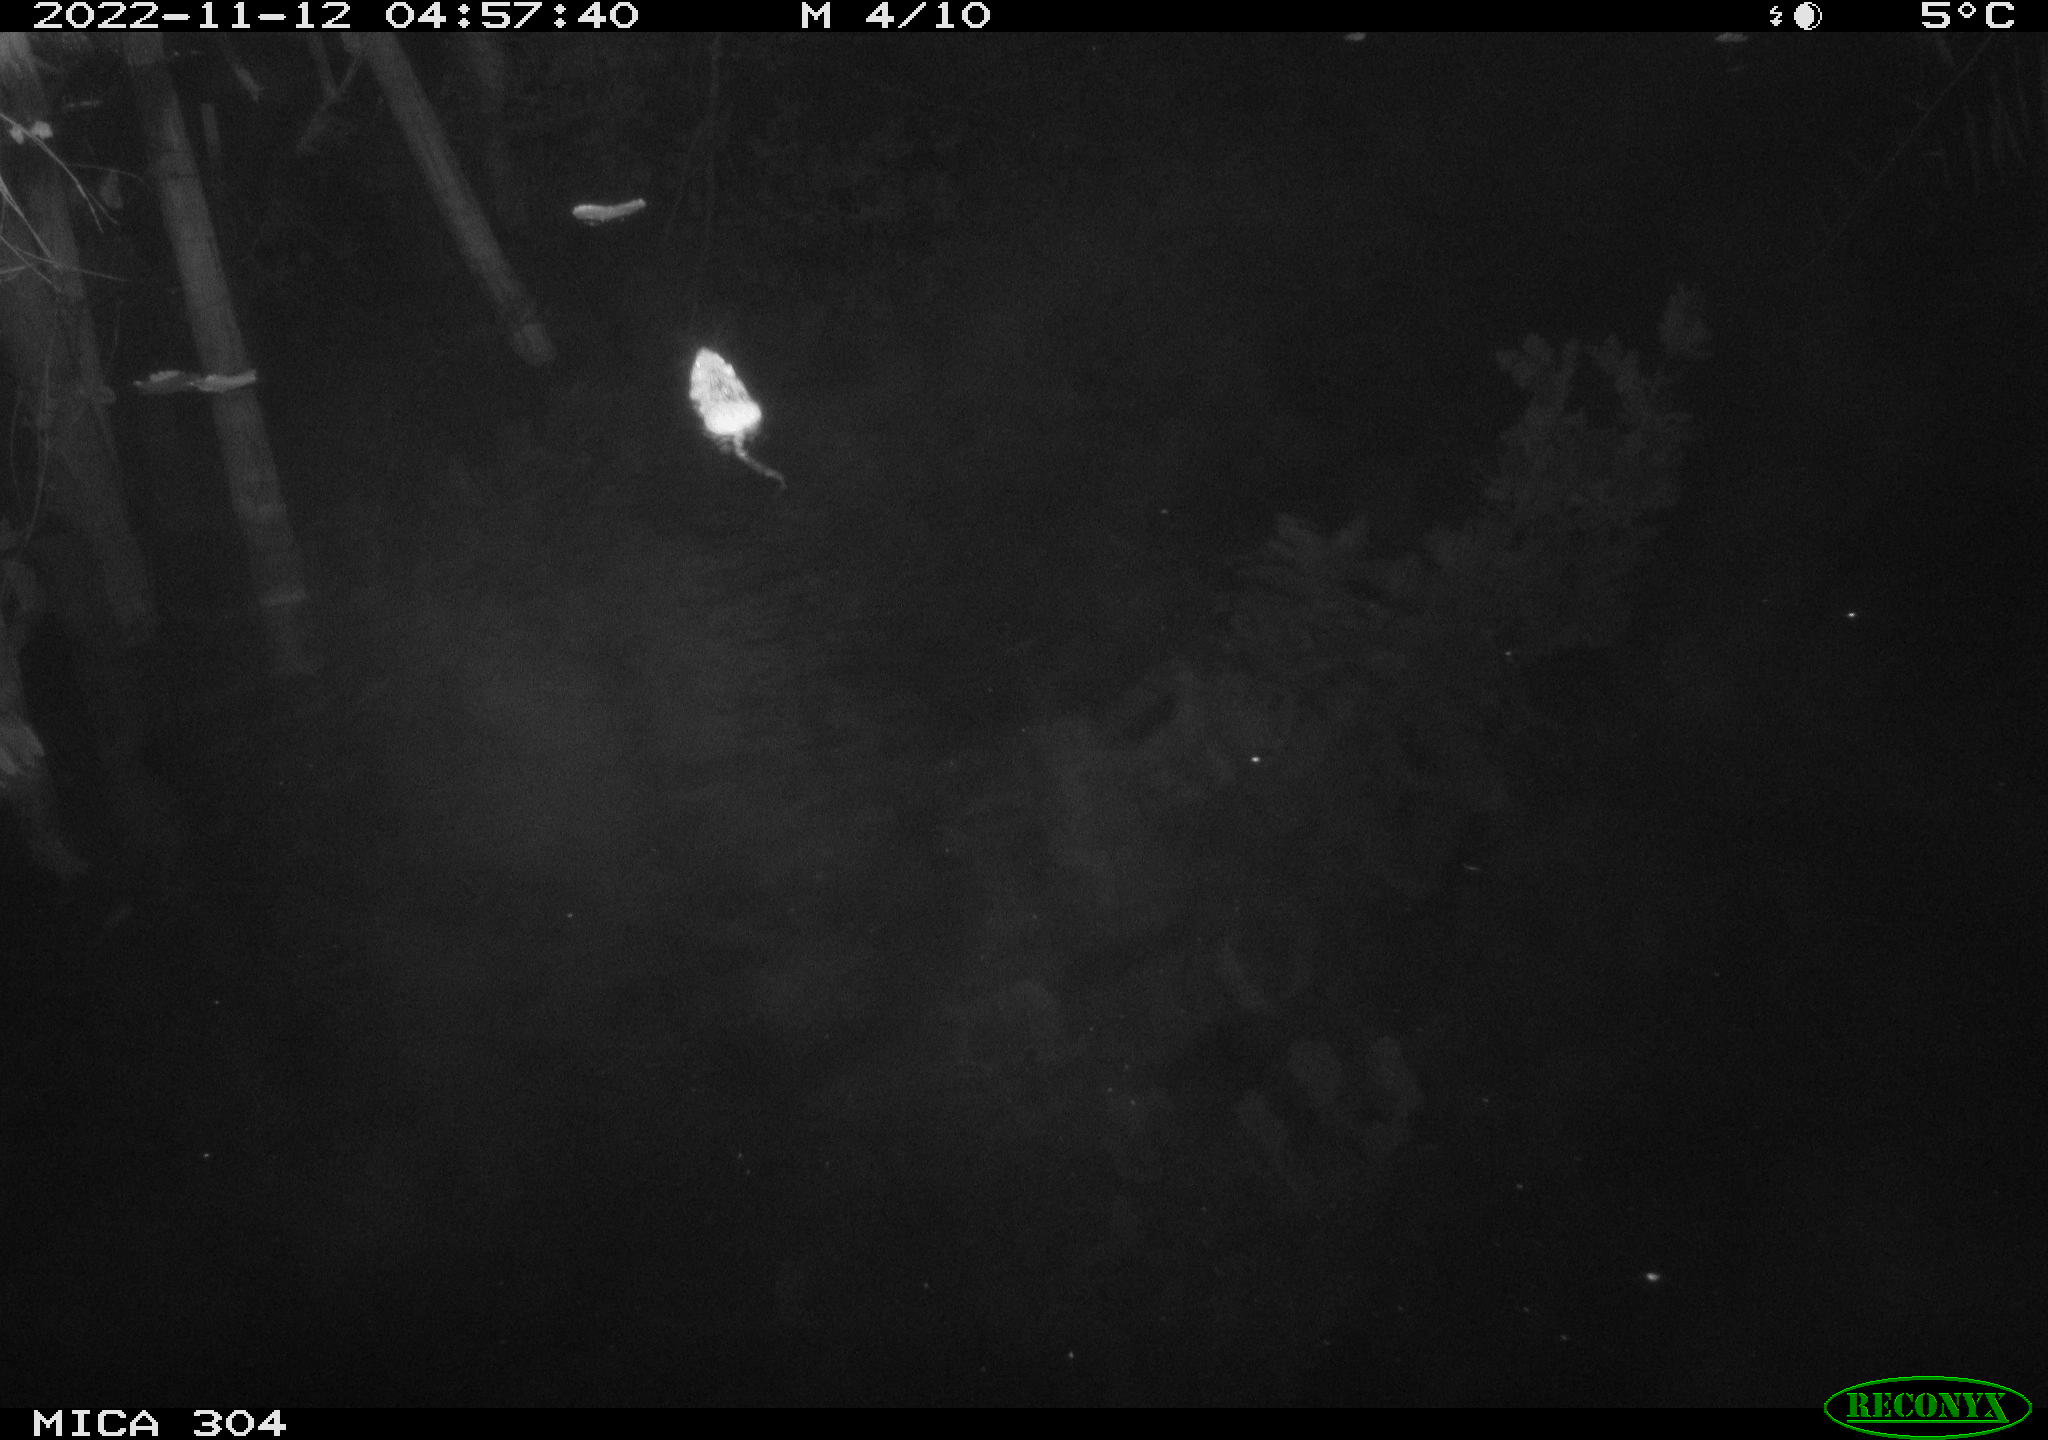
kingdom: Animalia
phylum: Chordata
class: Mammalia
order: Rodentia
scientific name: Rodentia
